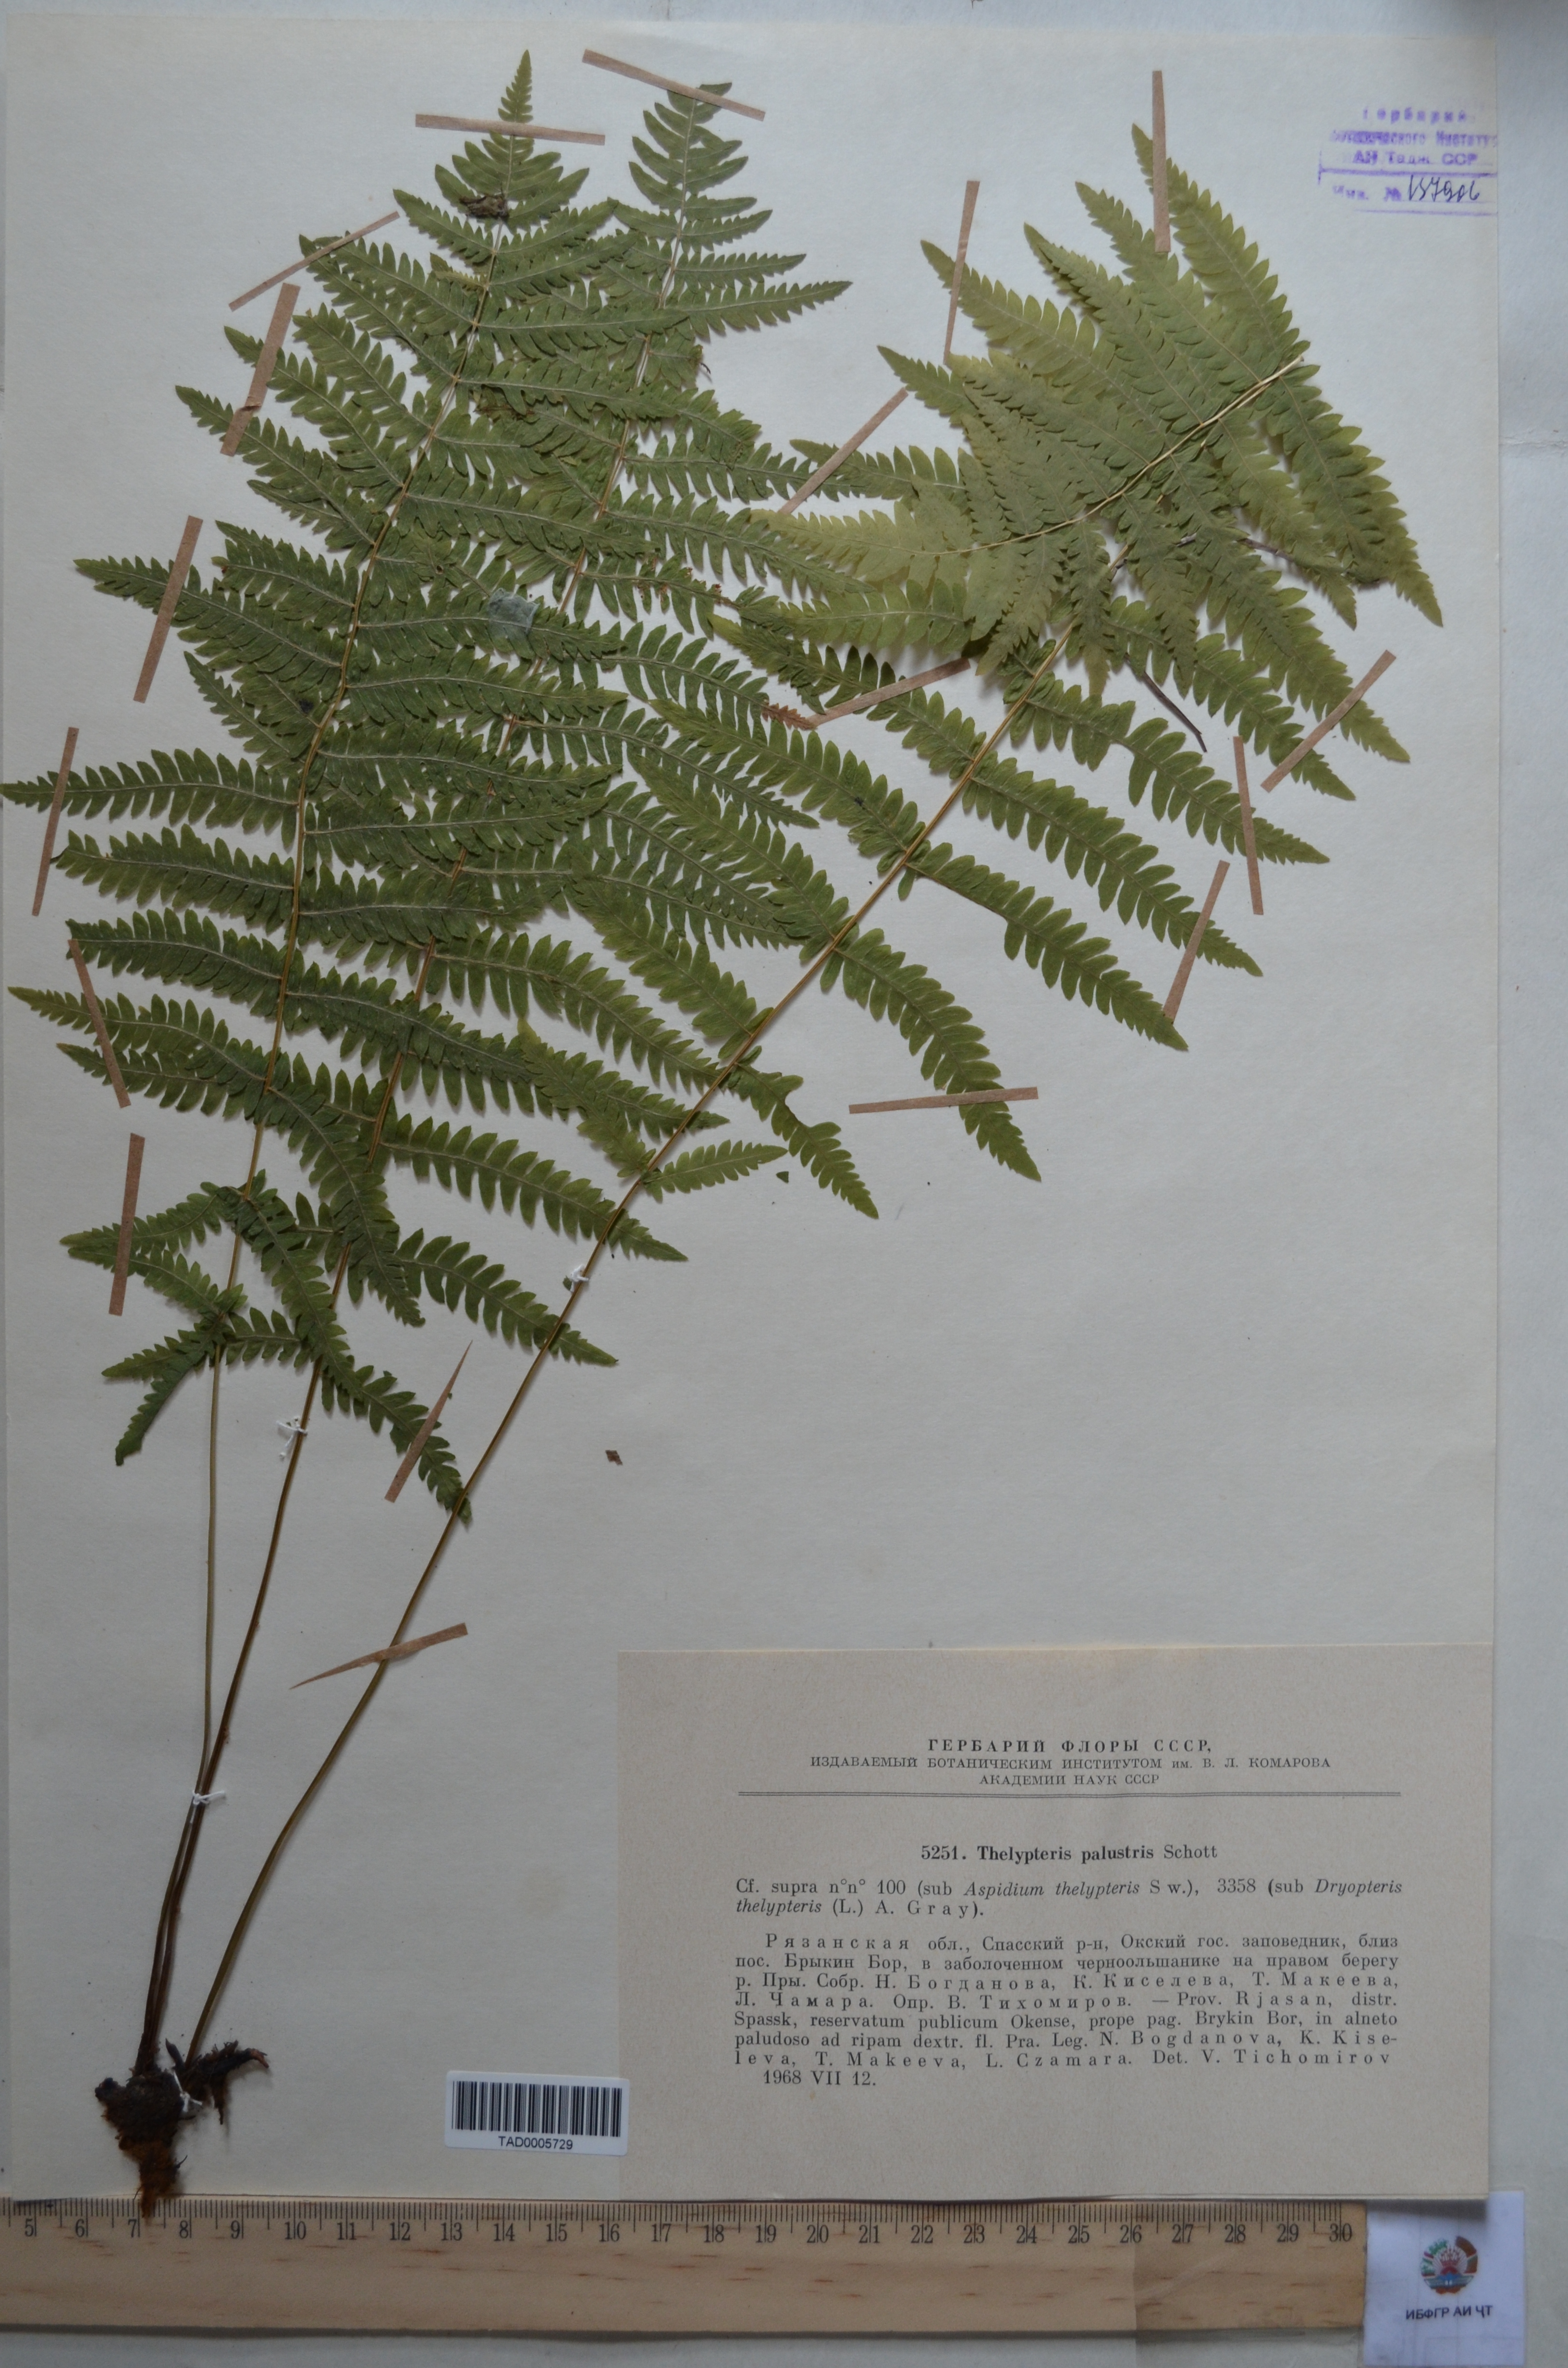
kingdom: Plantae
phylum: Tracheophyta
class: Polypodiopsida
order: Polypodiales
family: Thelypteridaceae
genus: Thelypteris
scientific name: Thelypteris palustris
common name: Marsh fern
